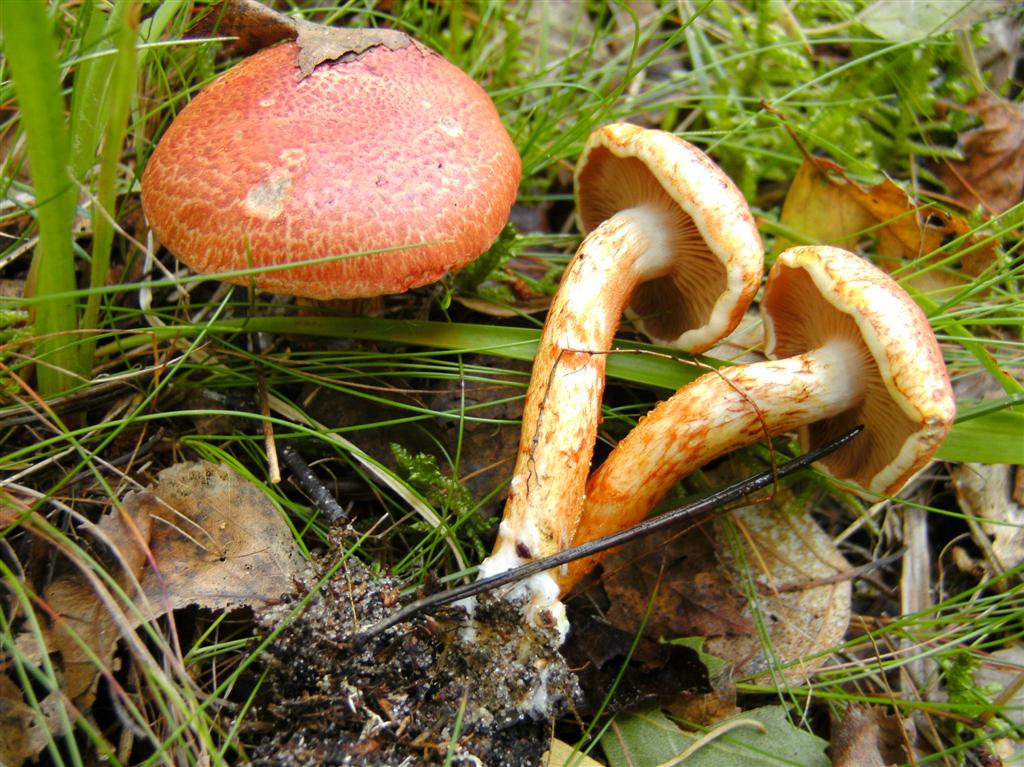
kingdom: Fungi
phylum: Basidiomycota
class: Agaricomycetes
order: Agaricales
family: Cortinariaceae
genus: Cortinarius
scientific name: Cortinarius bolaris
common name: cinnoberskællet slørhat
